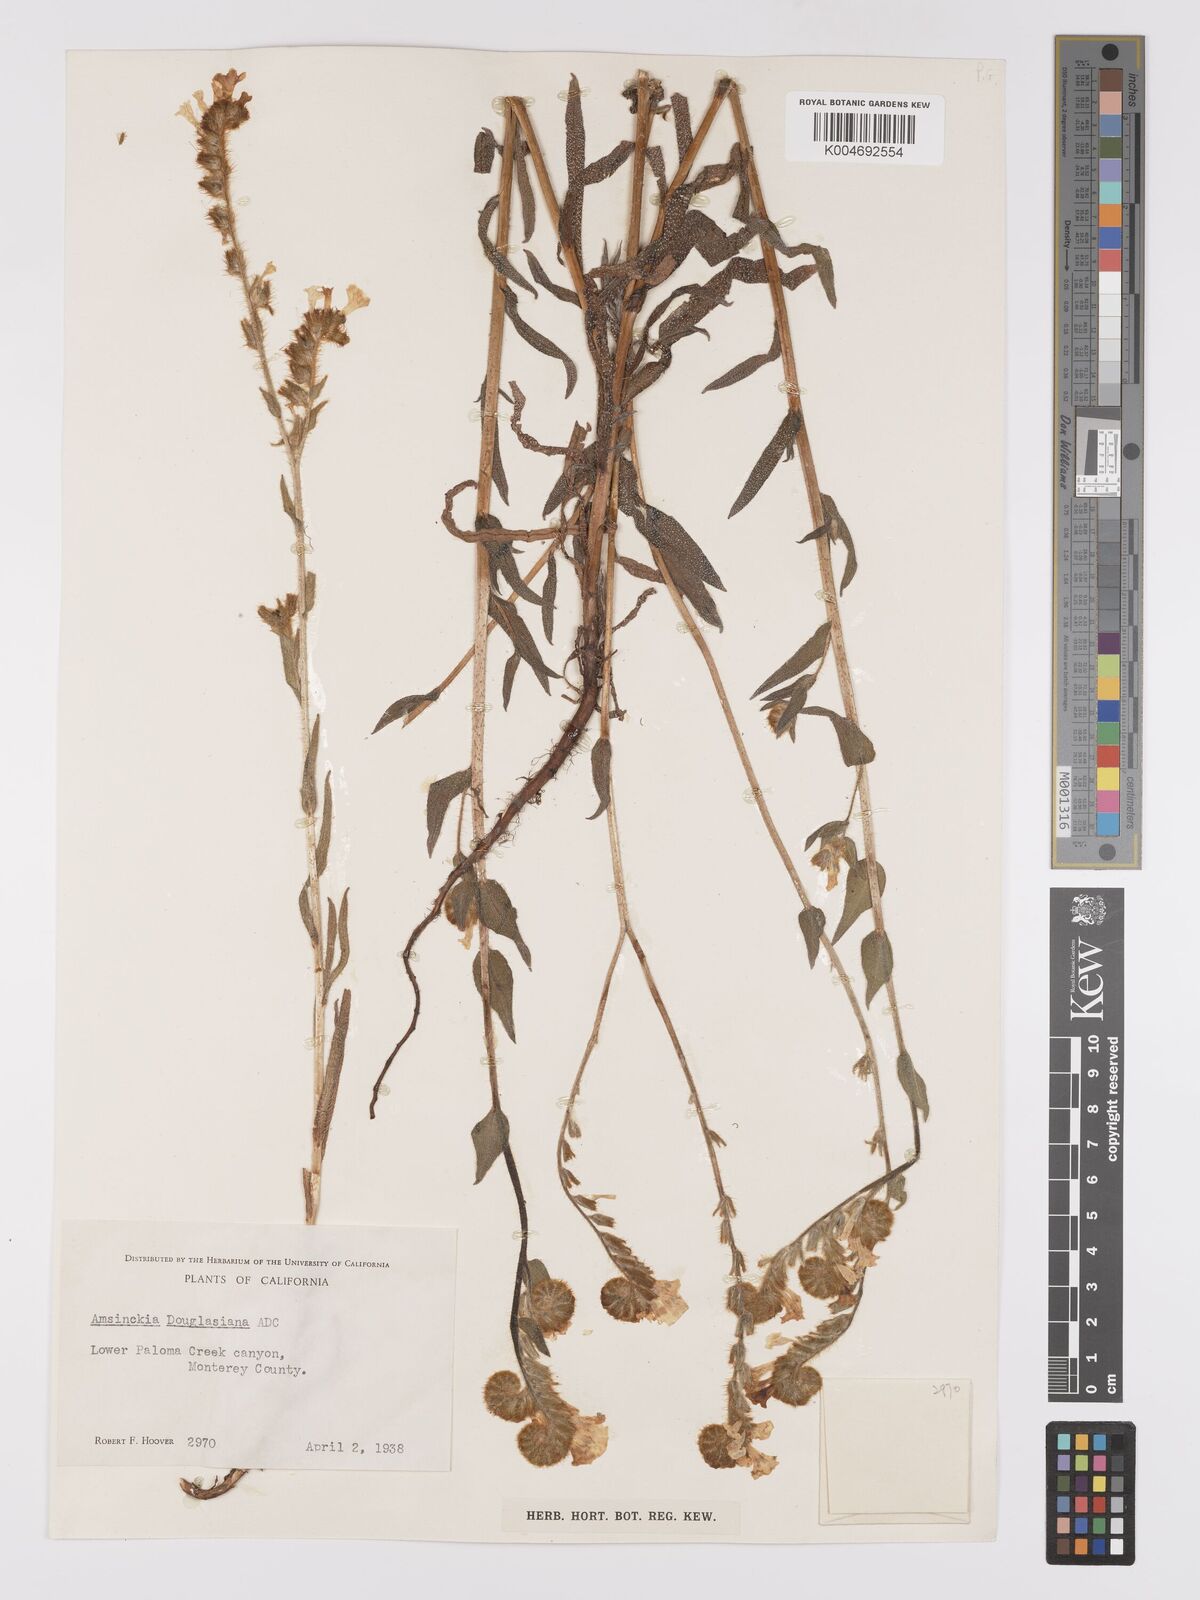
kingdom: Plantae
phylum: Tracheophyta
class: Magnoliopsida
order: Boraginales
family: Boraginaceae
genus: Amsinckia
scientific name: Amsinckia douglasiana
